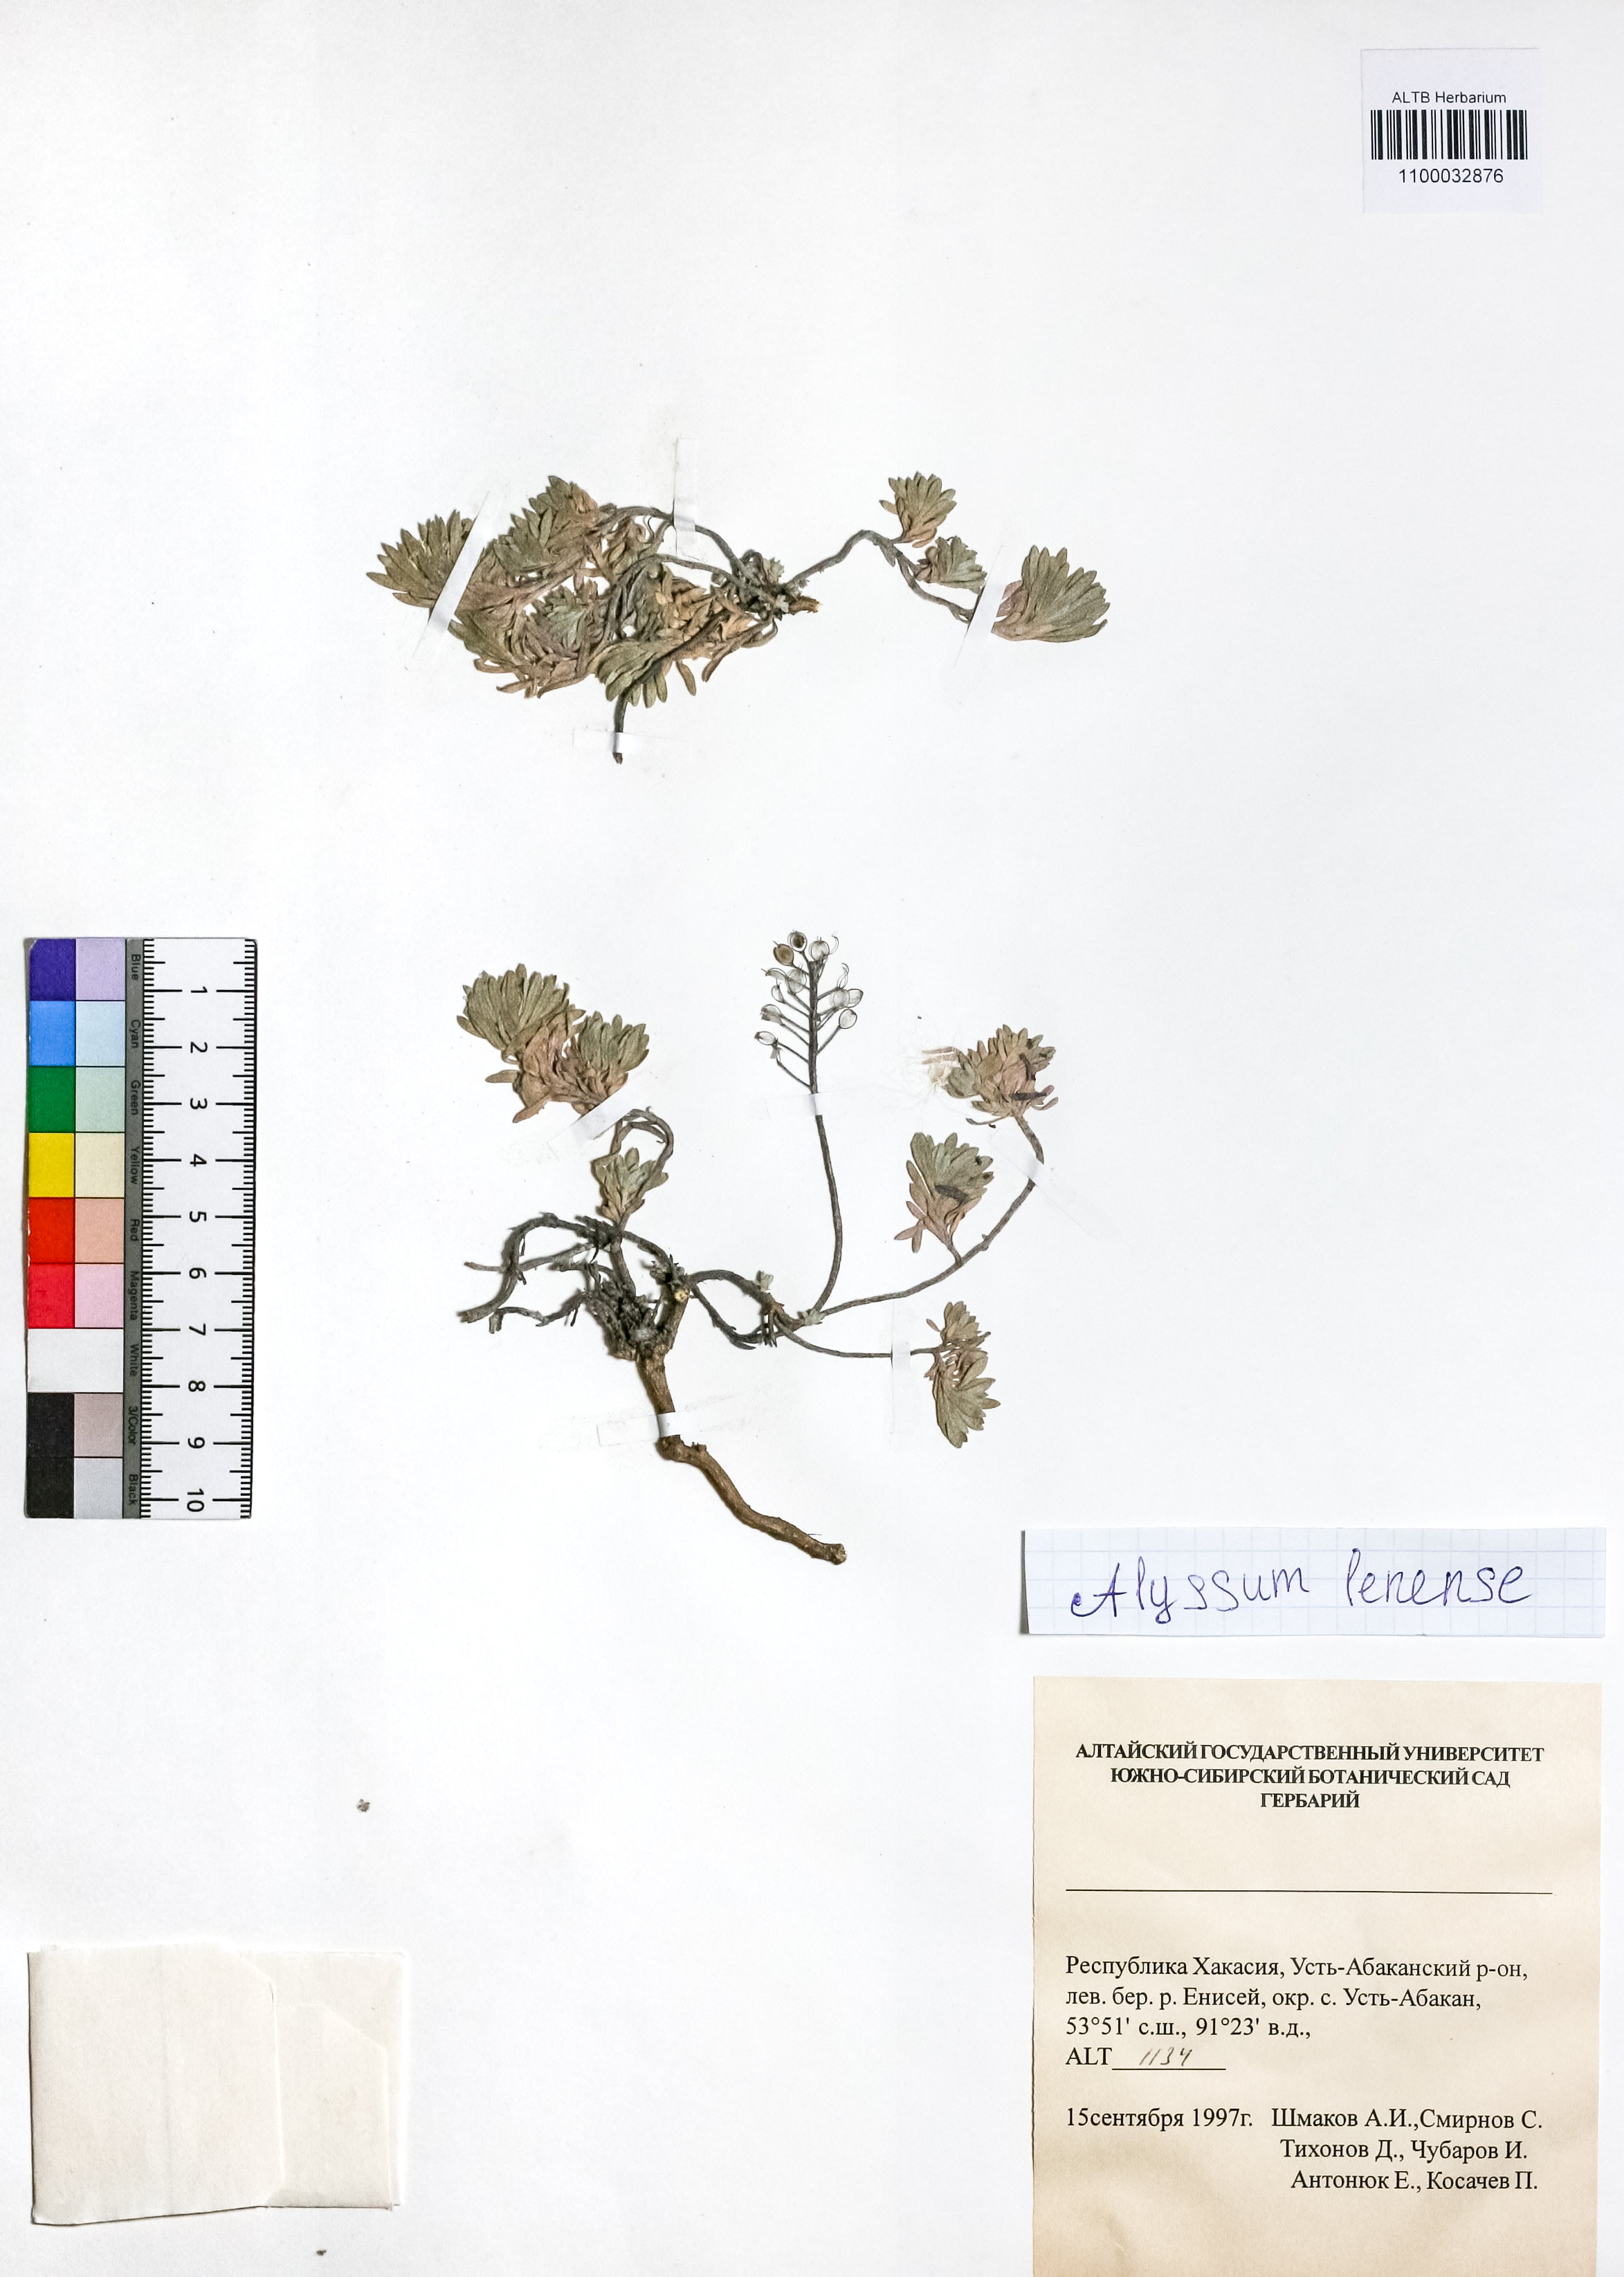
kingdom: Plantae
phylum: Tracheophyta
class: Magnoliopsida
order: Brassicales
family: Brassicaceae
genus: Alyssum
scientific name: Alyssum lenense
